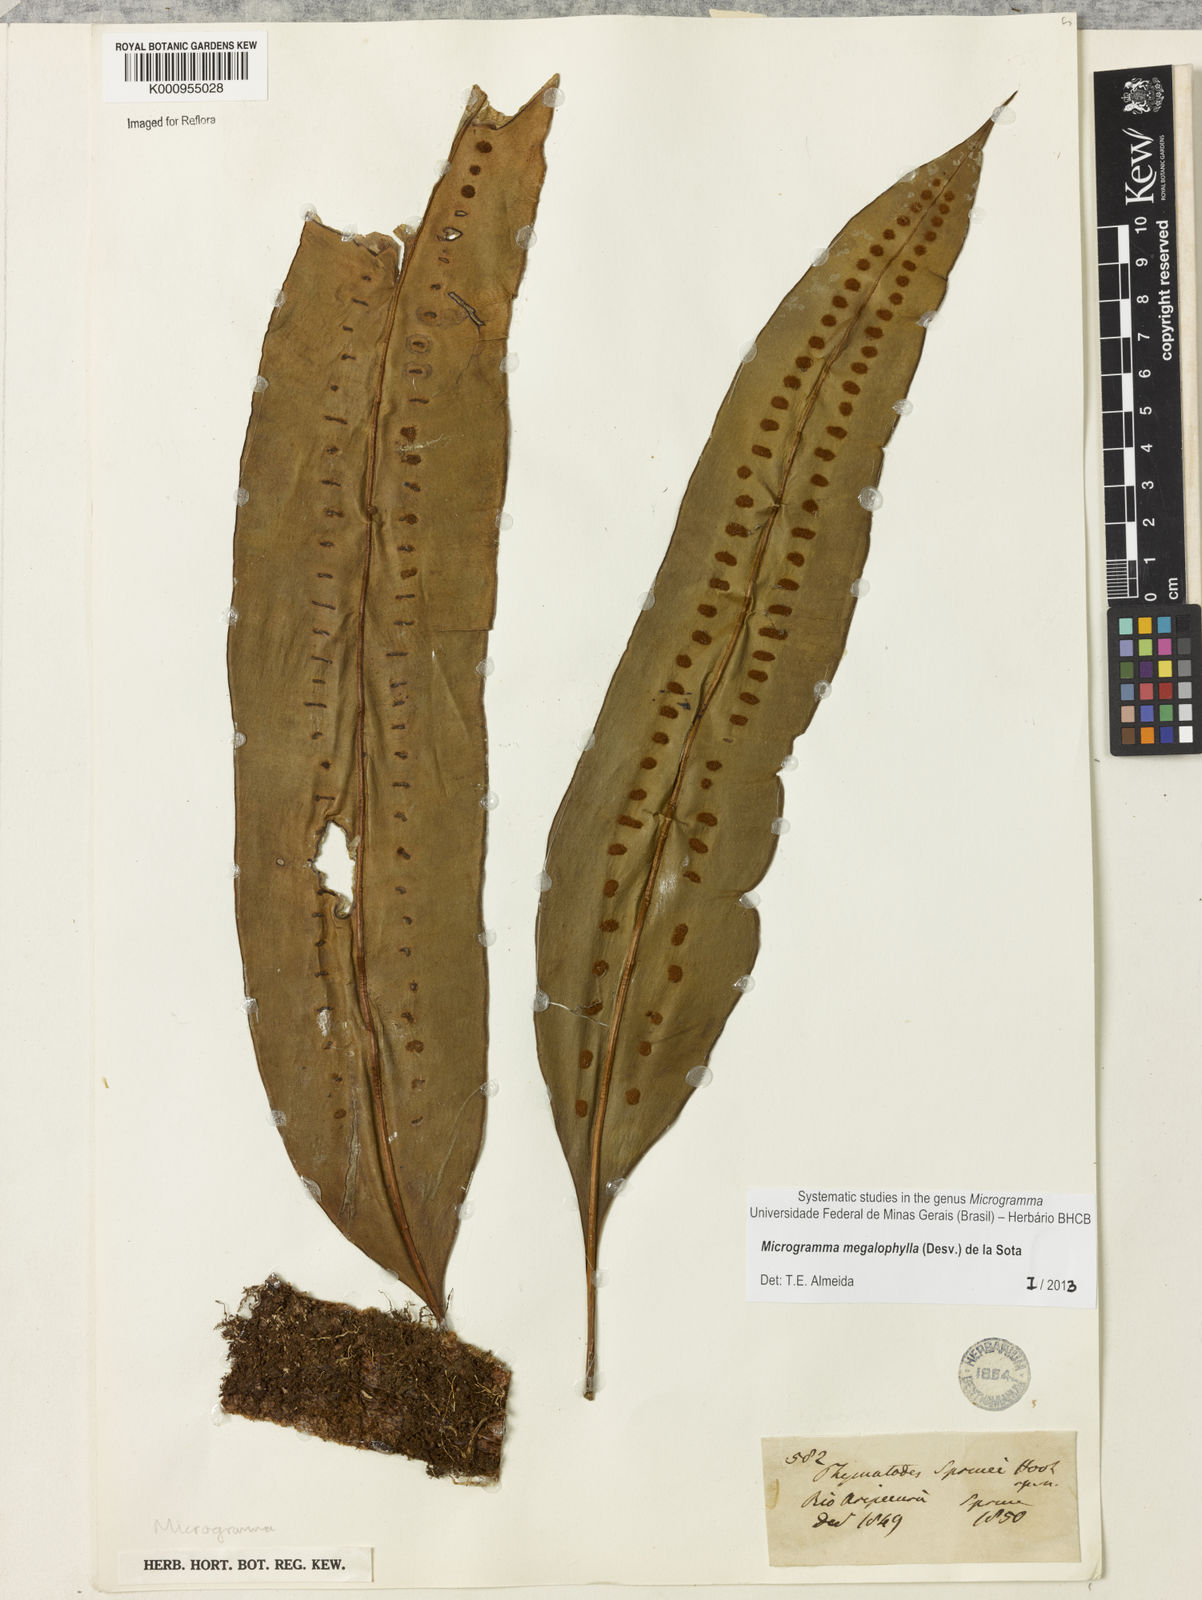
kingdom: Plantae
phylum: Tracheophyta
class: Polypodiopsida
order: Polypodiales
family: Polypodiaceae
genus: Microgramma
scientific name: Microgramma megalophylla
